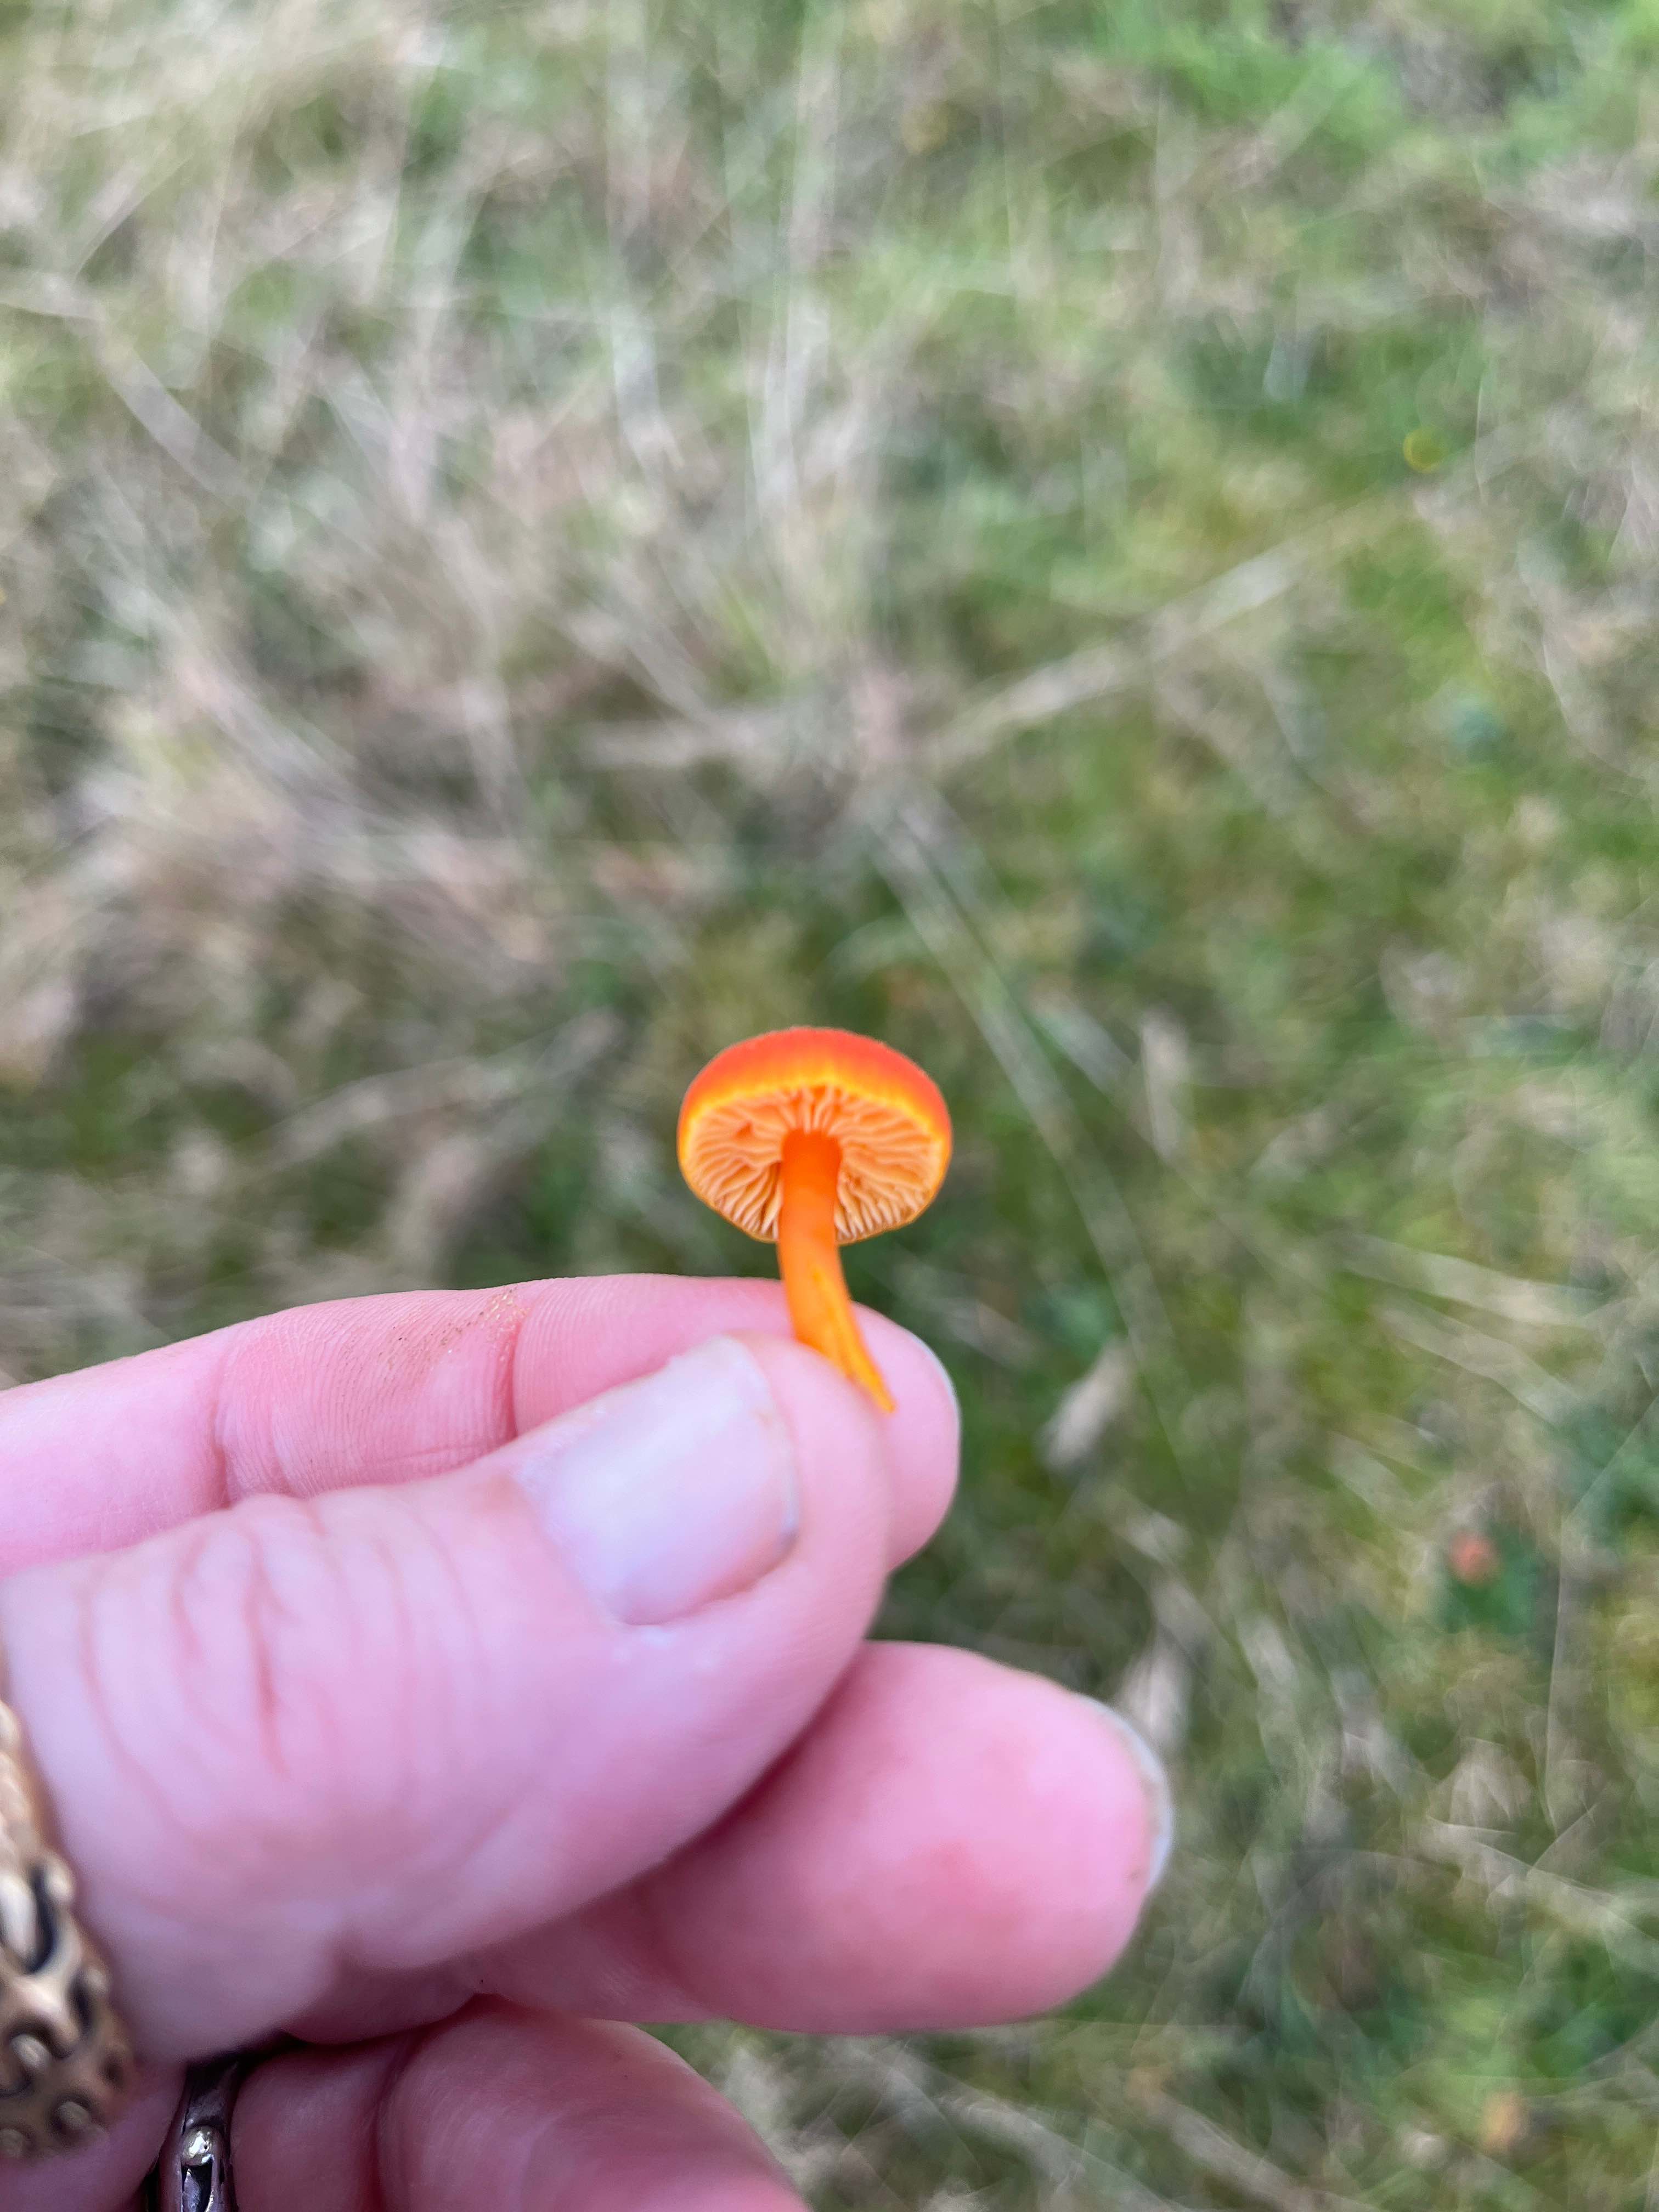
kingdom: Fungi
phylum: Basidiomycota
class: Agaricomycetes
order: Agaricales
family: Hygrophoraceae
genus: Hygrocybe
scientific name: Hygrocybe miniata
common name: mønje-vokshat
